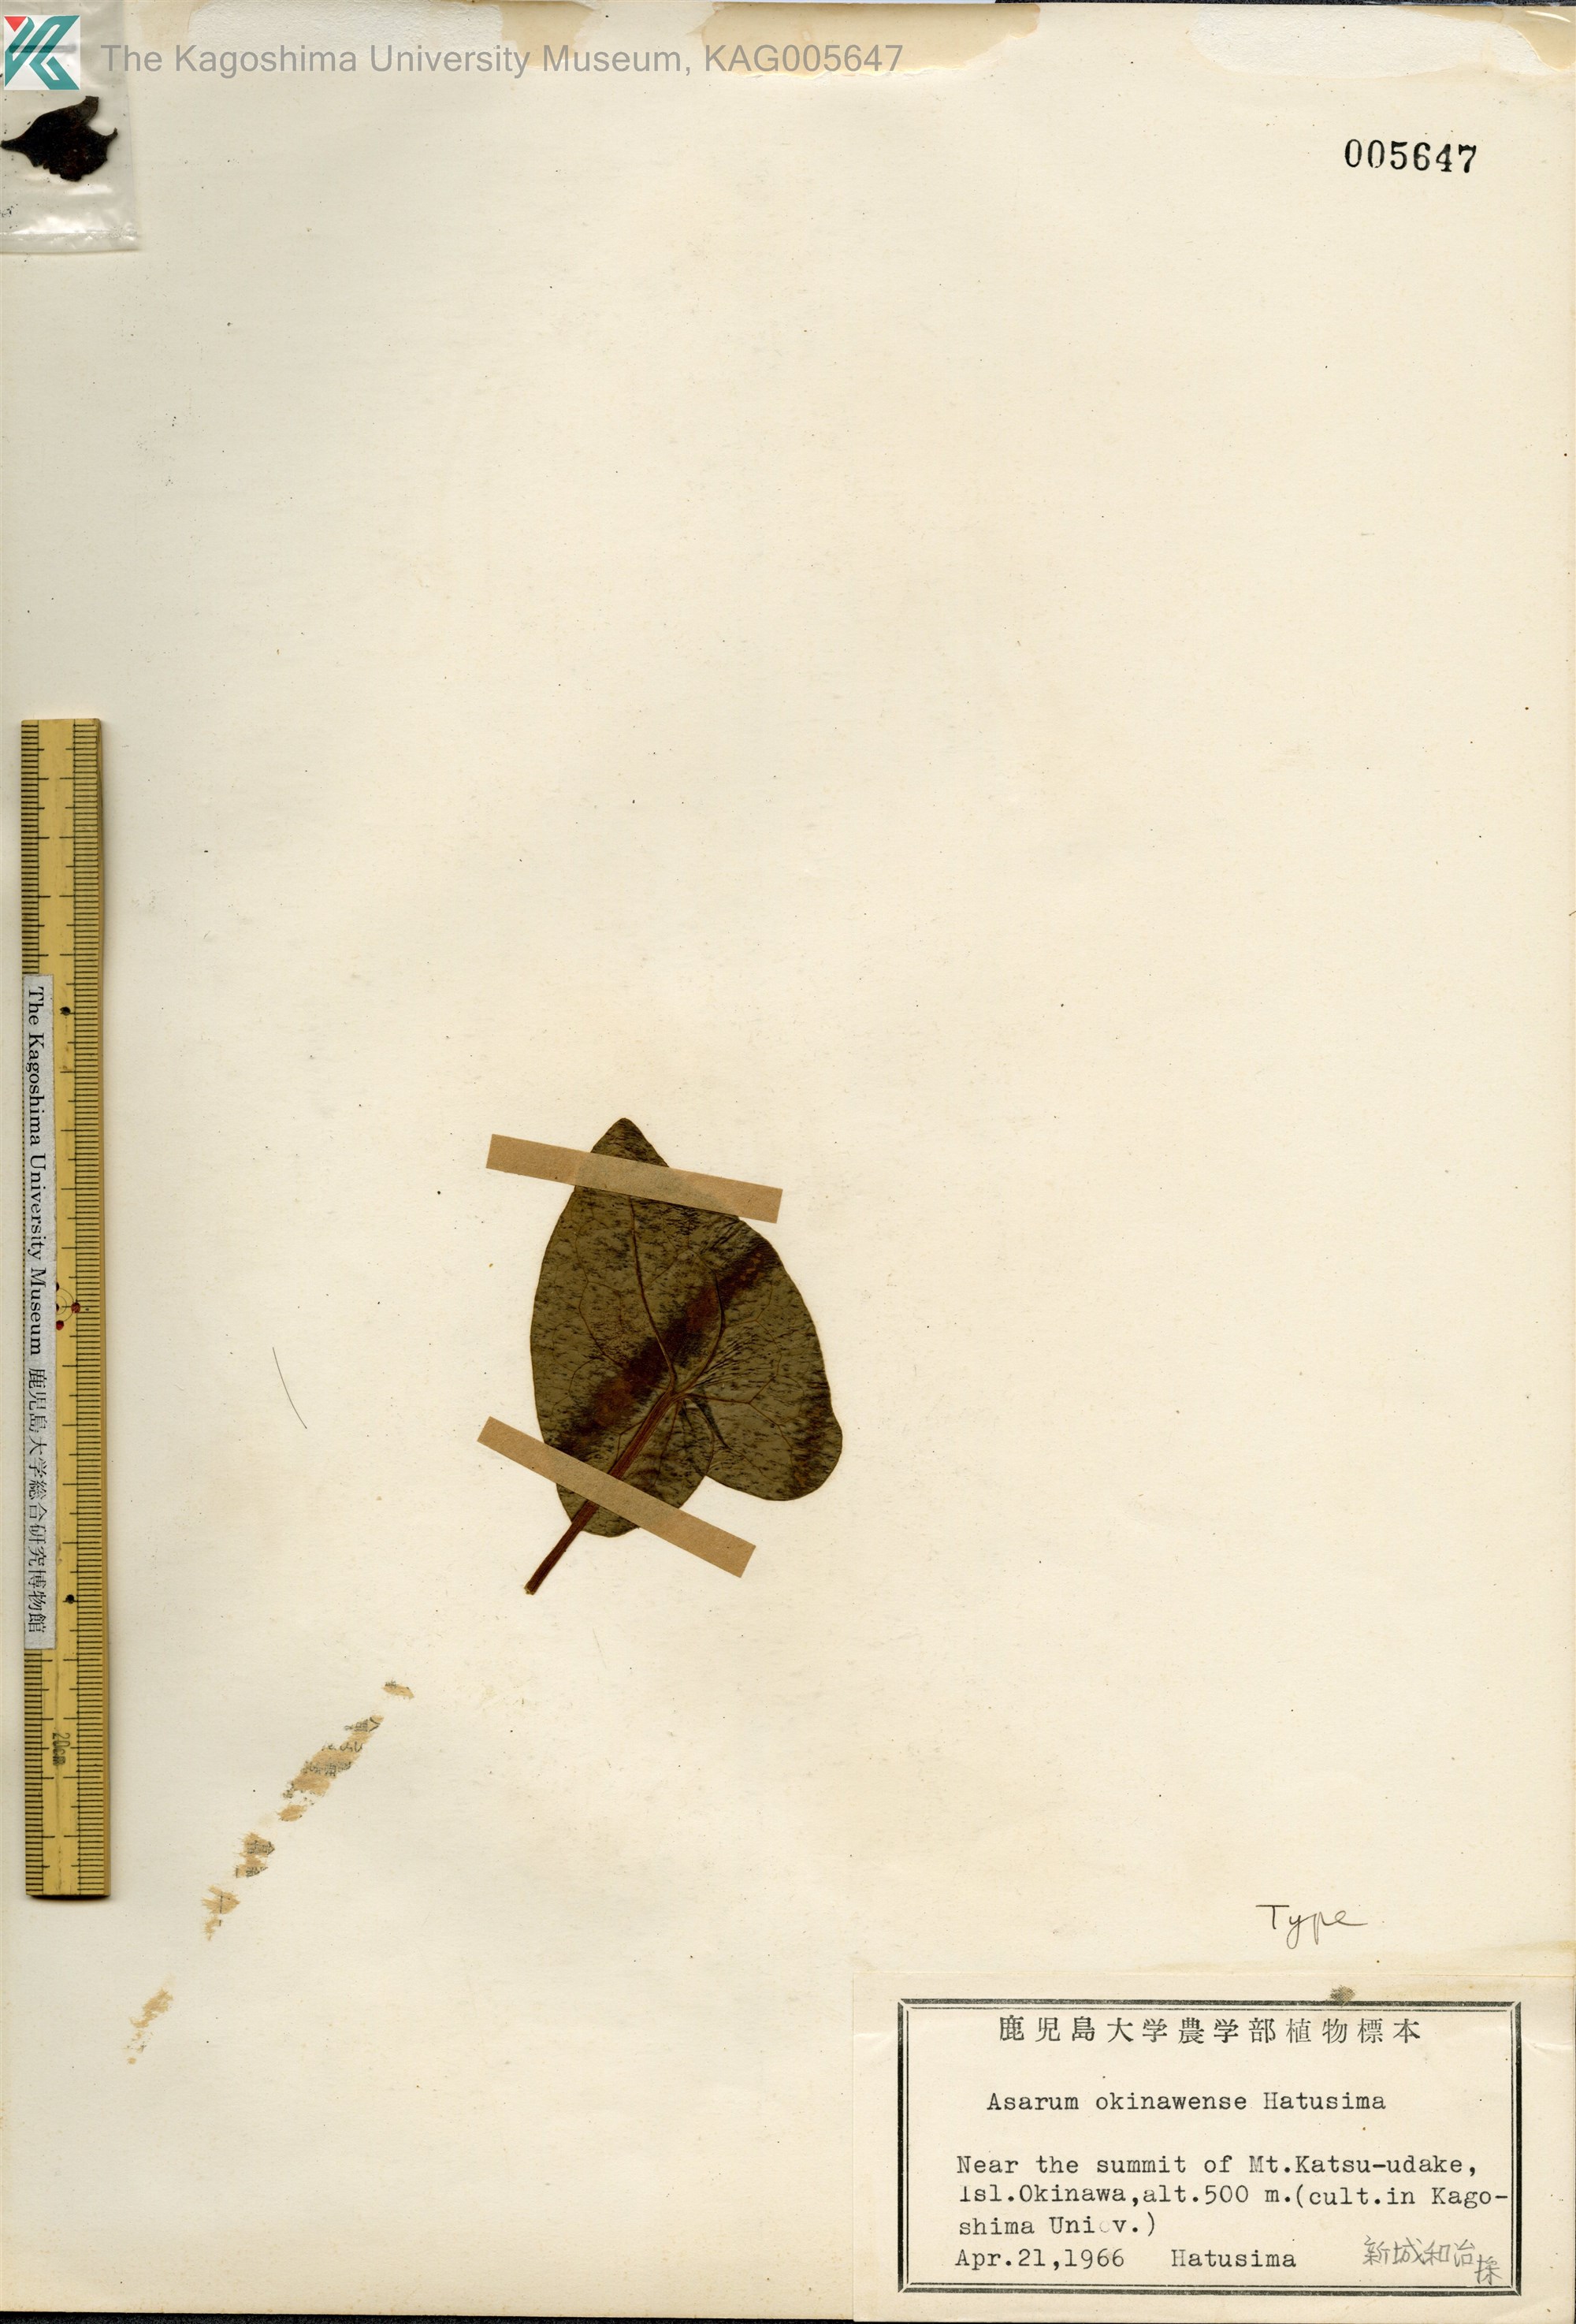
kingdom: Plantae
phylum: Tracheophyta
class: Magnoliopsida
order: Piperales
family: Aristolochiaceae
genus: Asarum
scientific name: Asarum okinawense
